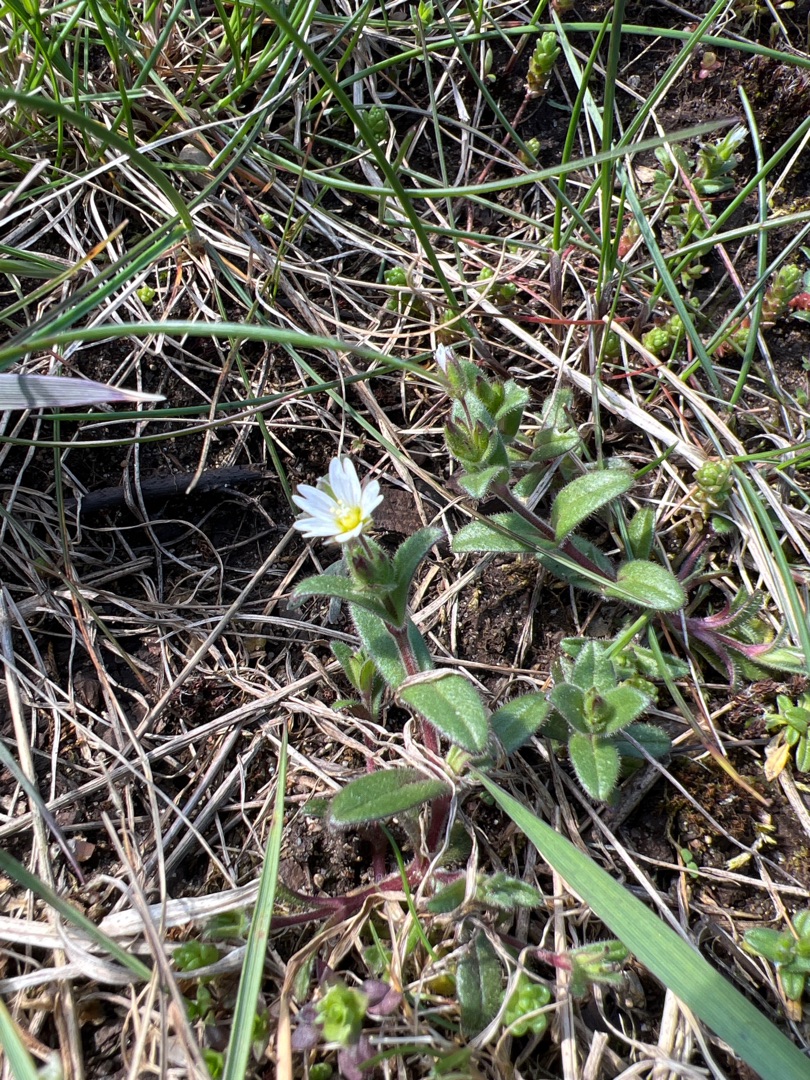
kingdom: Plantae
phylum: Tracheophyta
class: Magnoliopsida
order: Caryophyllales
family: Caryophyllaceae
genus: Cerastium
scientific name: Cerastium fontanum
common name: Almindelig hønsetarm
